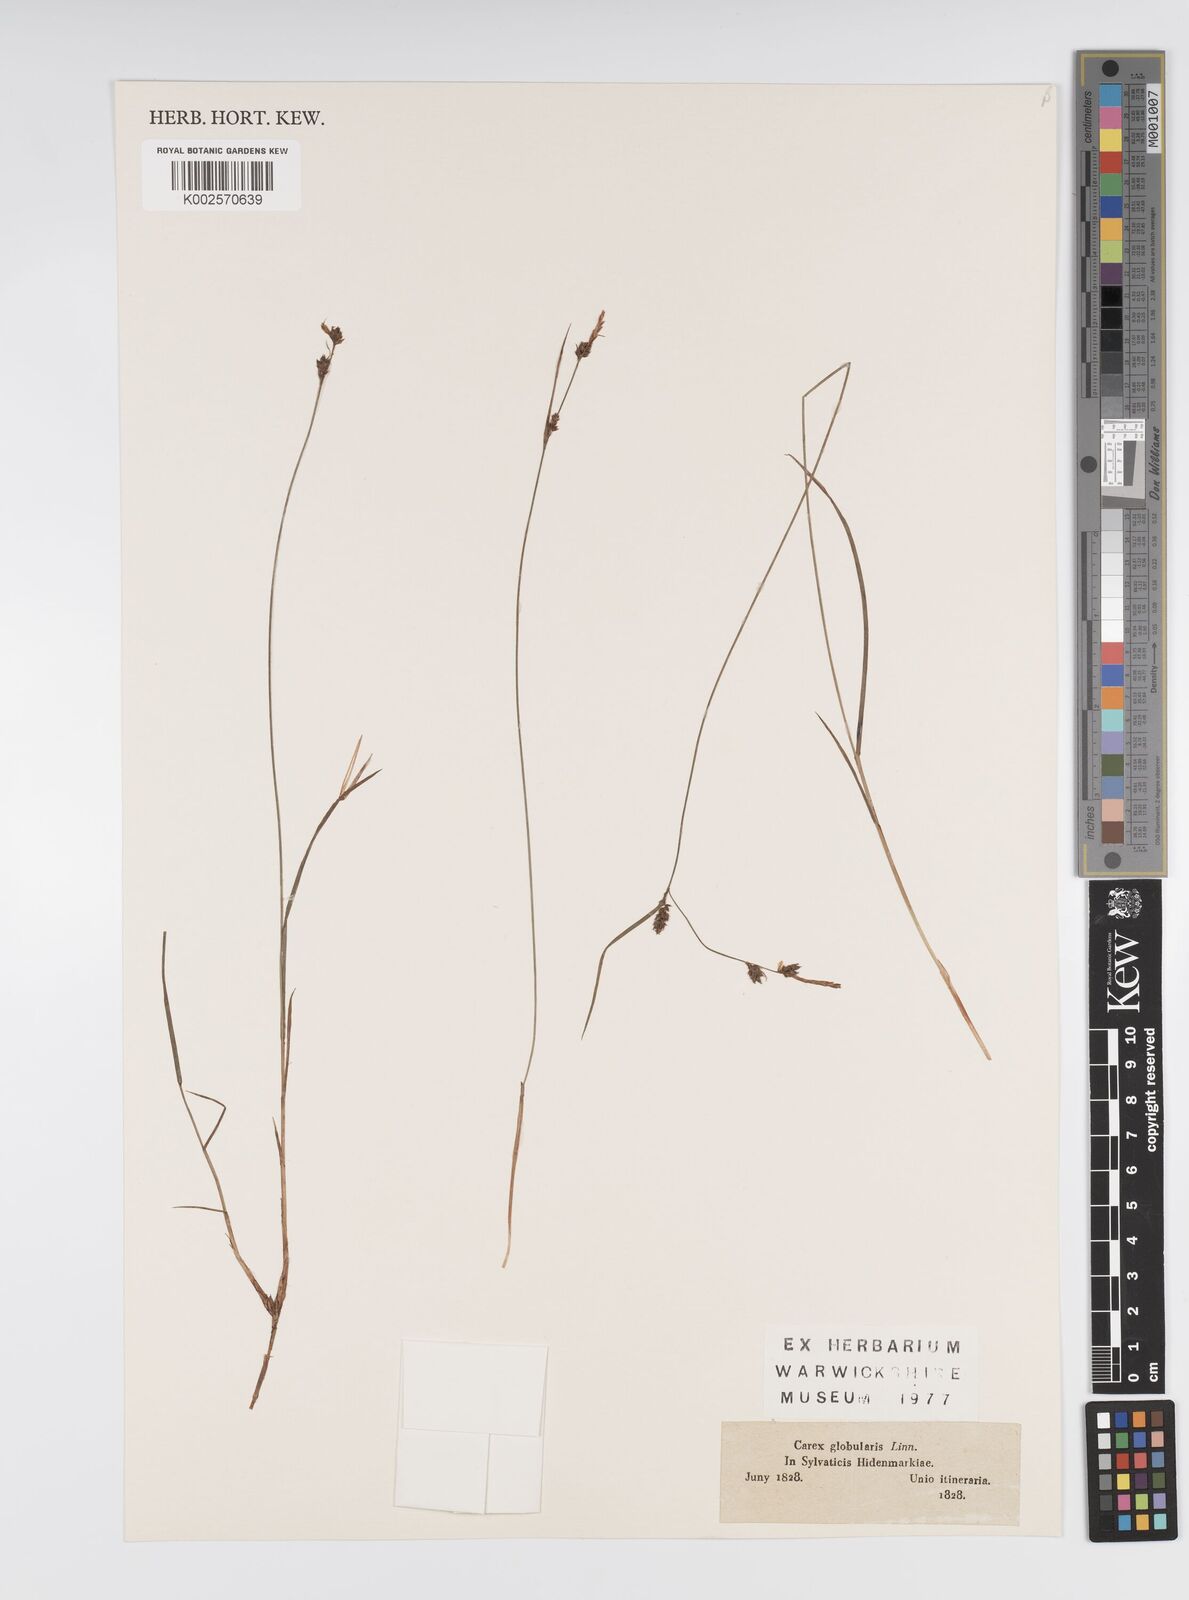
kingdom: Plantae
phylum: Tracheophyta
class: Liliopsida
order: Poales
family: Cyperaceae
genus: Carex
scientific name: Carex globularis
